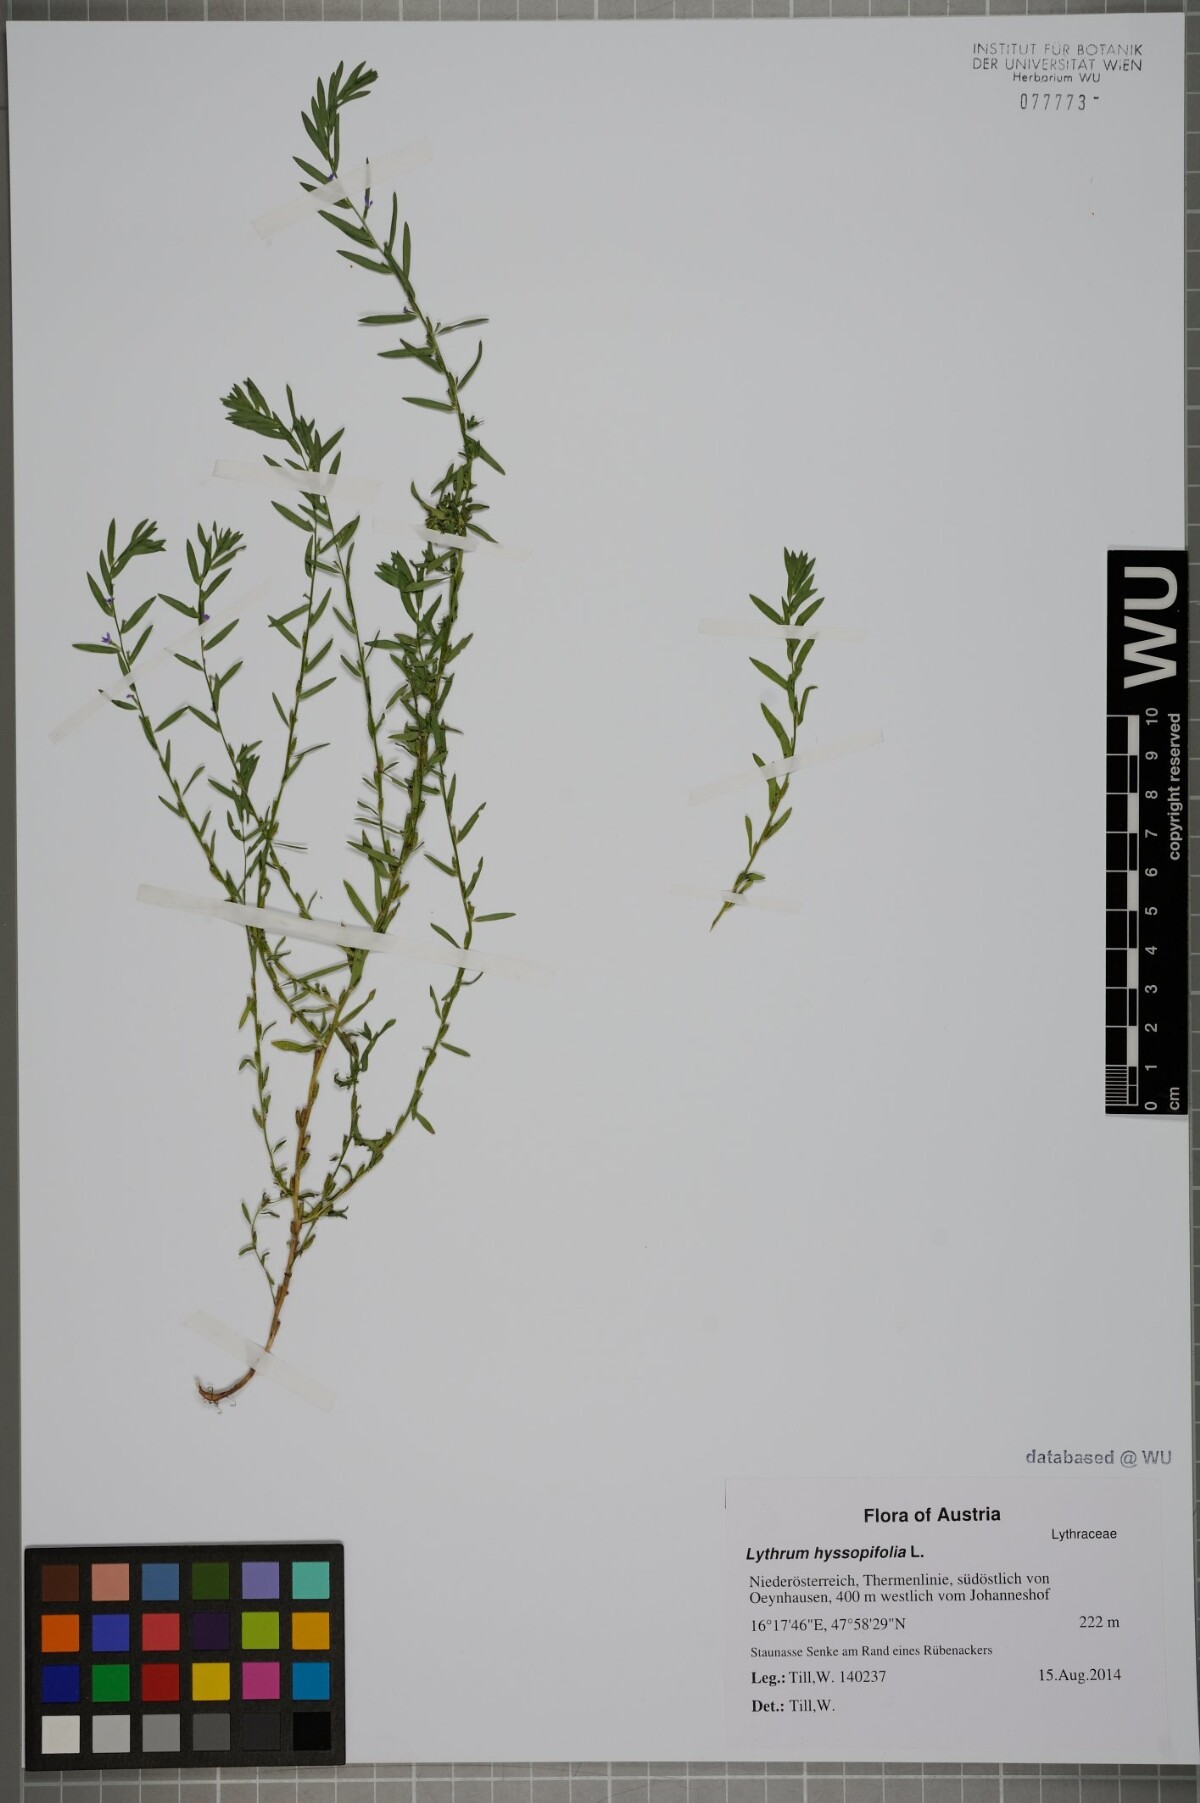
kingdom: Plantae
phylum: Tracheophyta
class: Magnoliopsida
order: Myrtales
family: Lythraceae
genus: Lythrum
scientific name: Lythrum hyssopifolia
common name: Grass-poly
